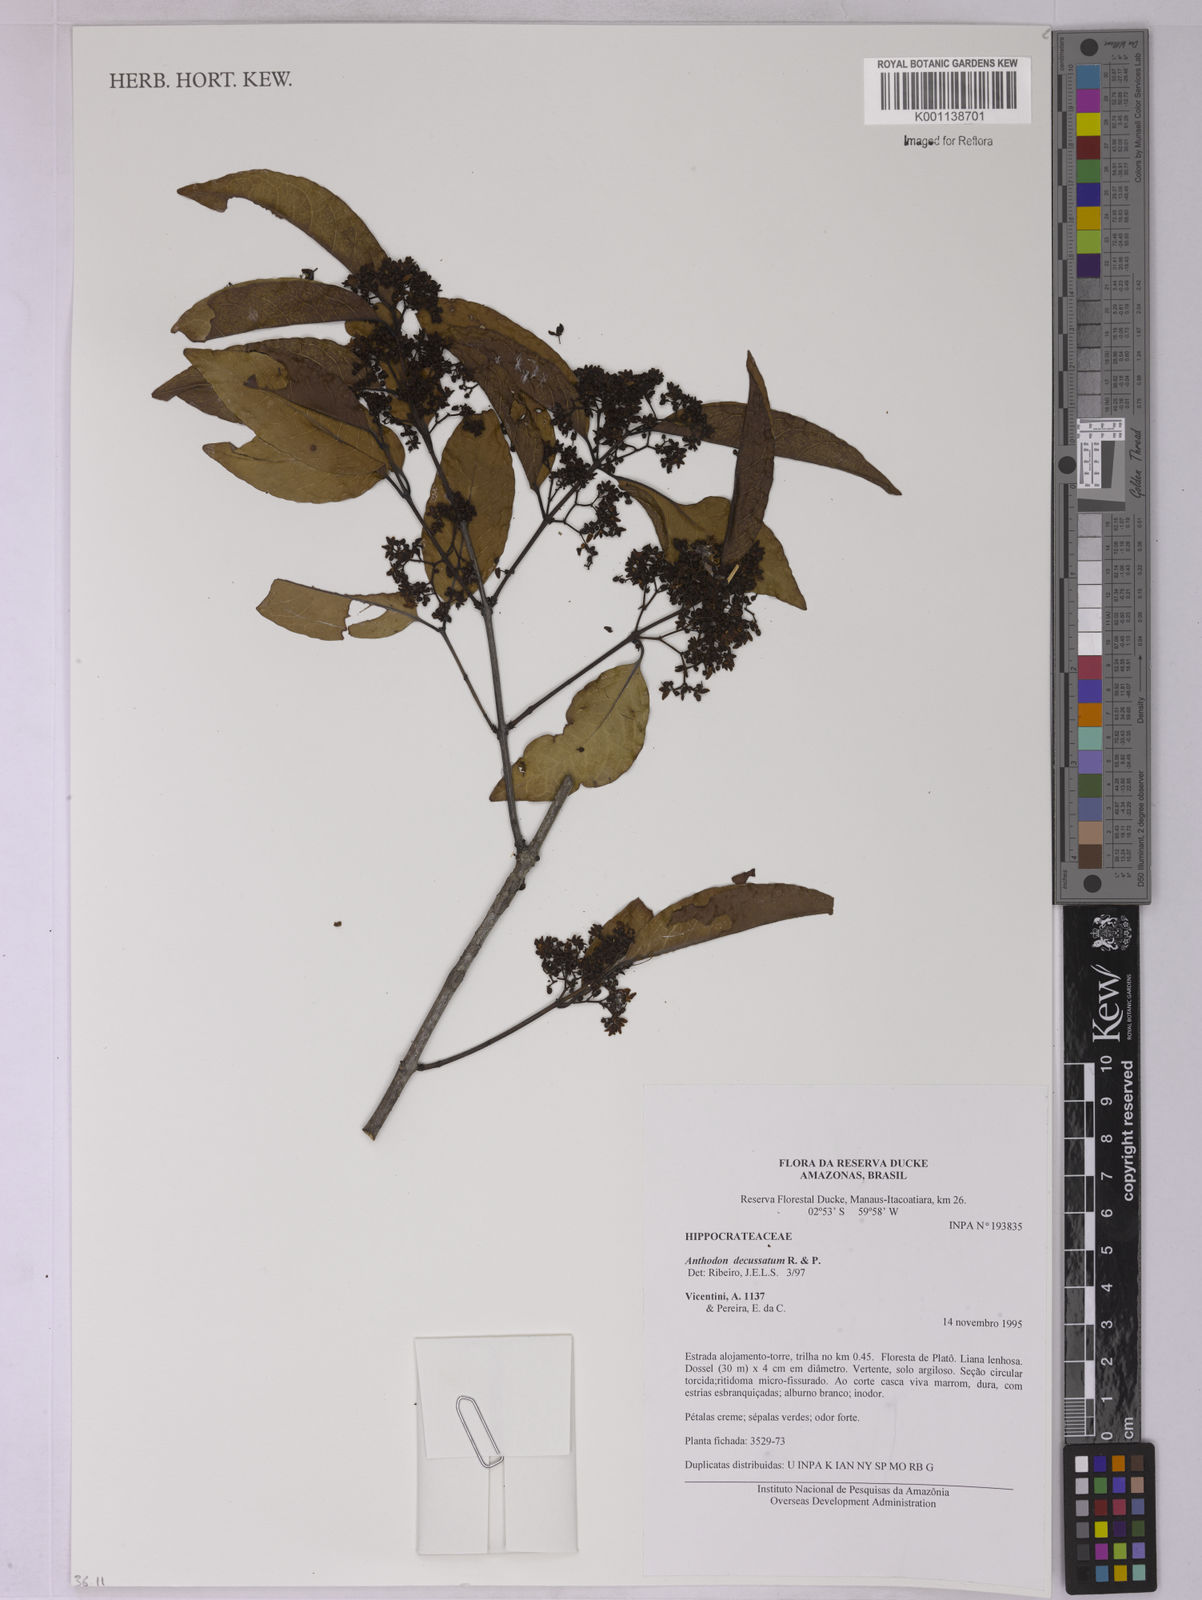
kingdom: Plantae
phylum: Tracheophyta
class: Magnoliopsida
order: Celastrales
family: Celastraceae
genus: Anthodon
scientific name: Anthodon decussatum
